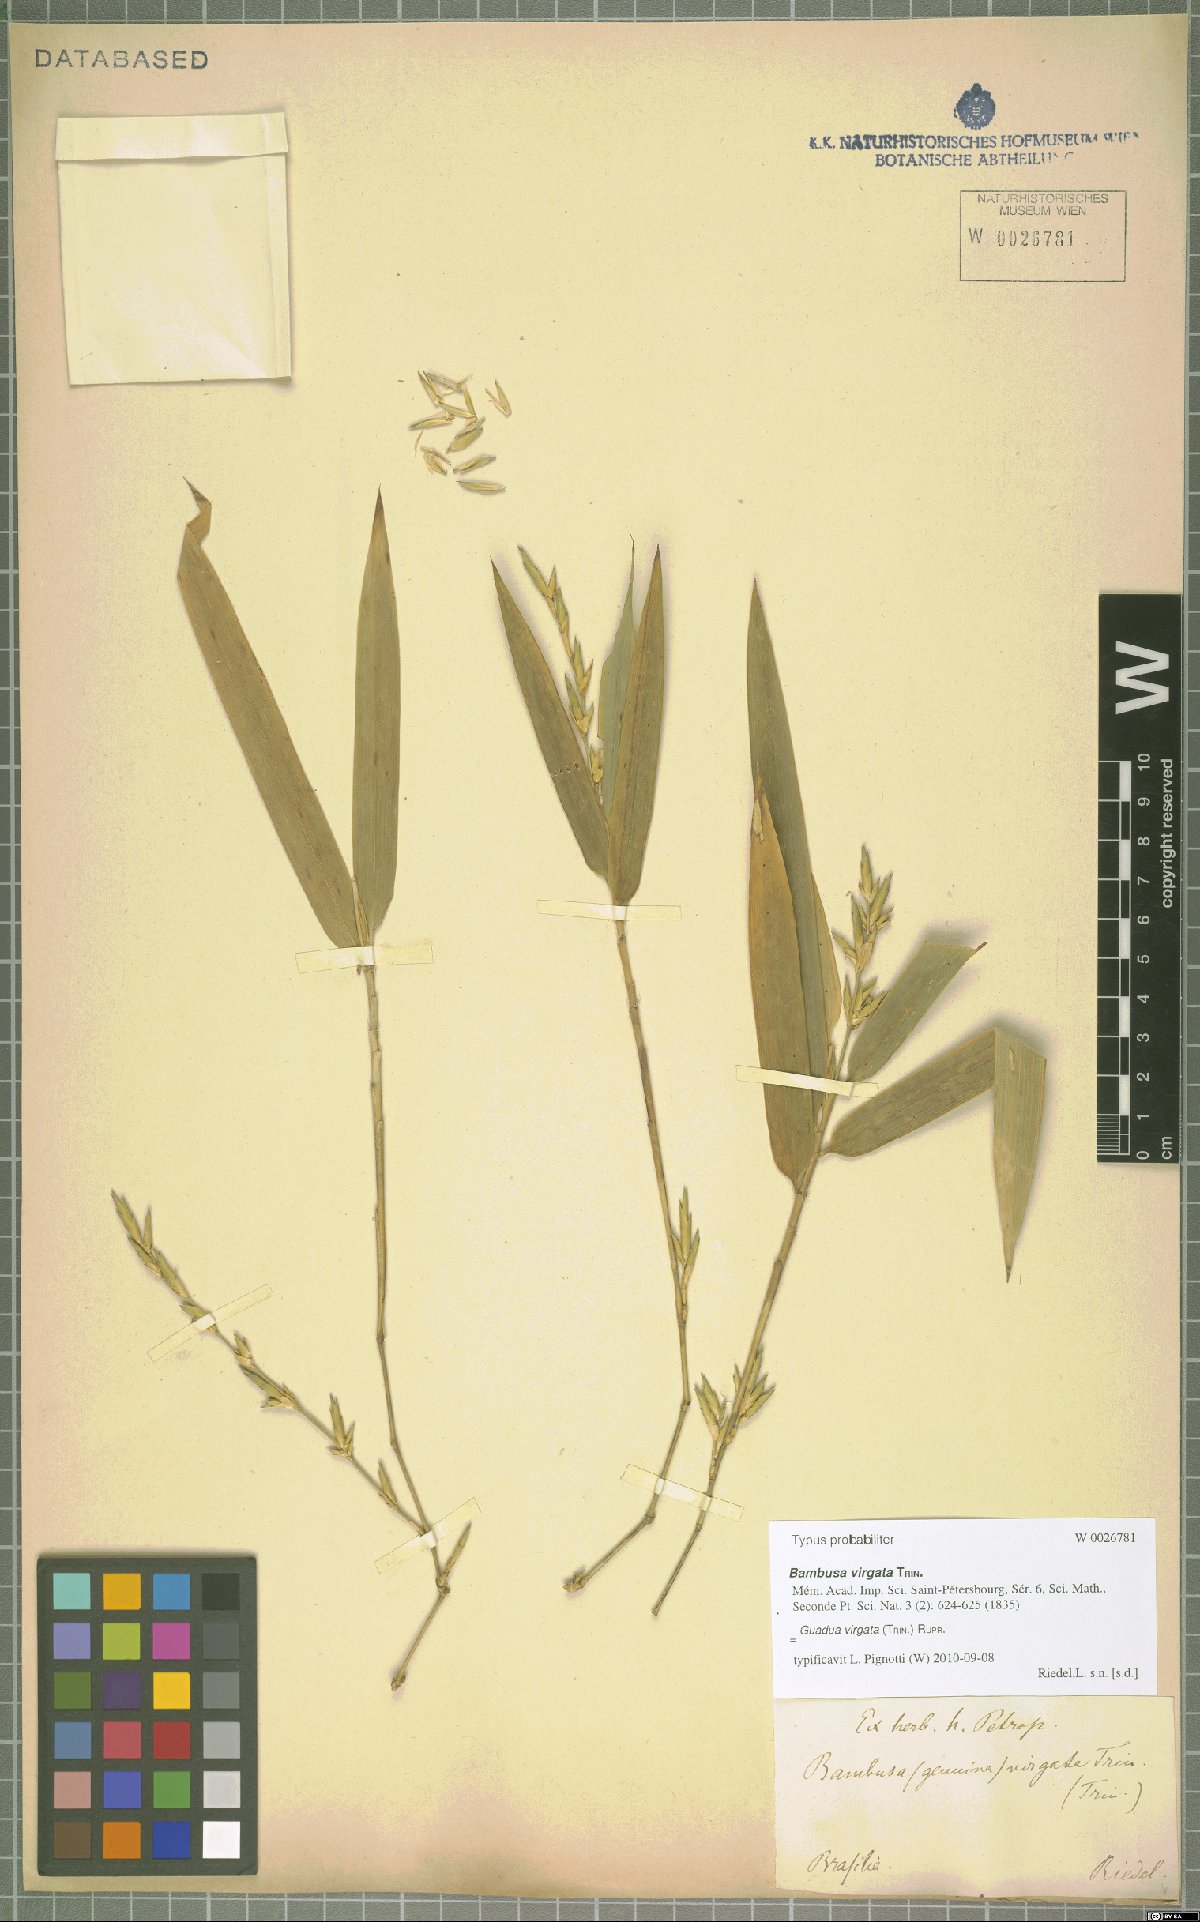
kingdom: Plantae
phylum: Tracheophyta
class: Liliopsida
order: Poales
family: Poaceae
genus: Guadua
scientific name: Guadua virgata
